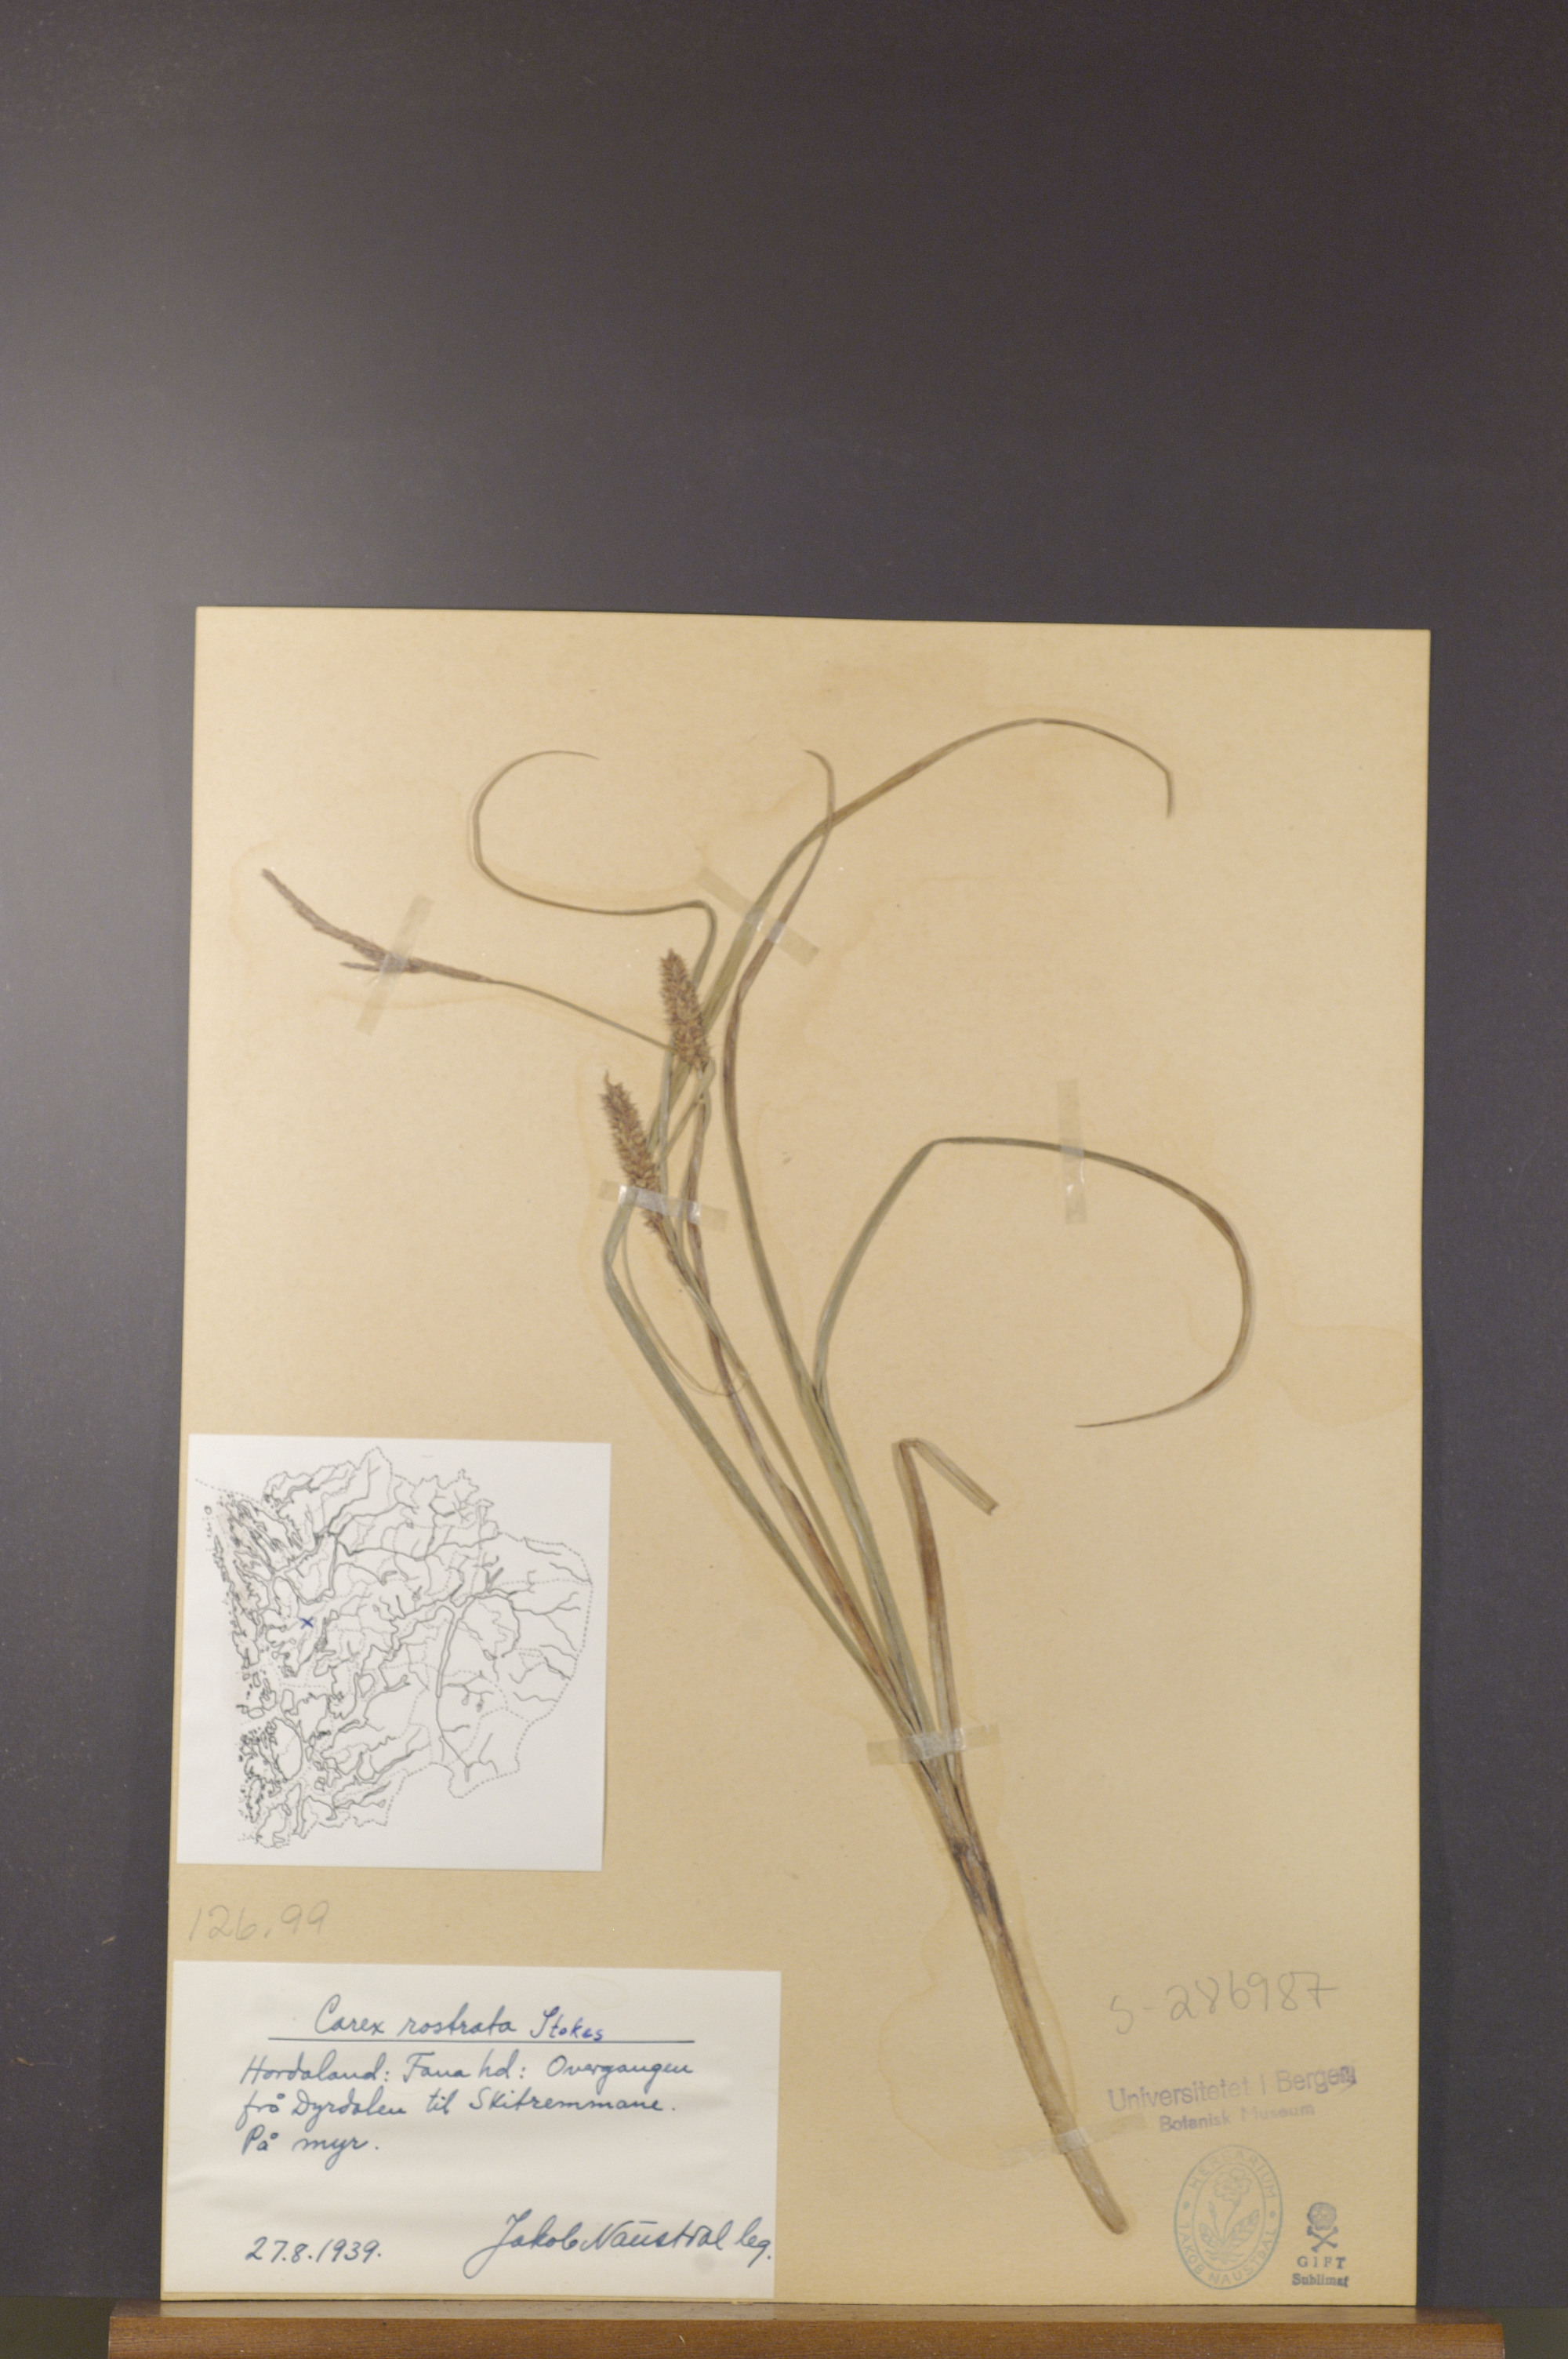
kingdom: Plantae
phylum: Tracheophyta
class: Liliopsida
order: Poales
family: Cyperaceae
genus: Carex
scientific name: Carex rostrata
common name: Bottle sedge
